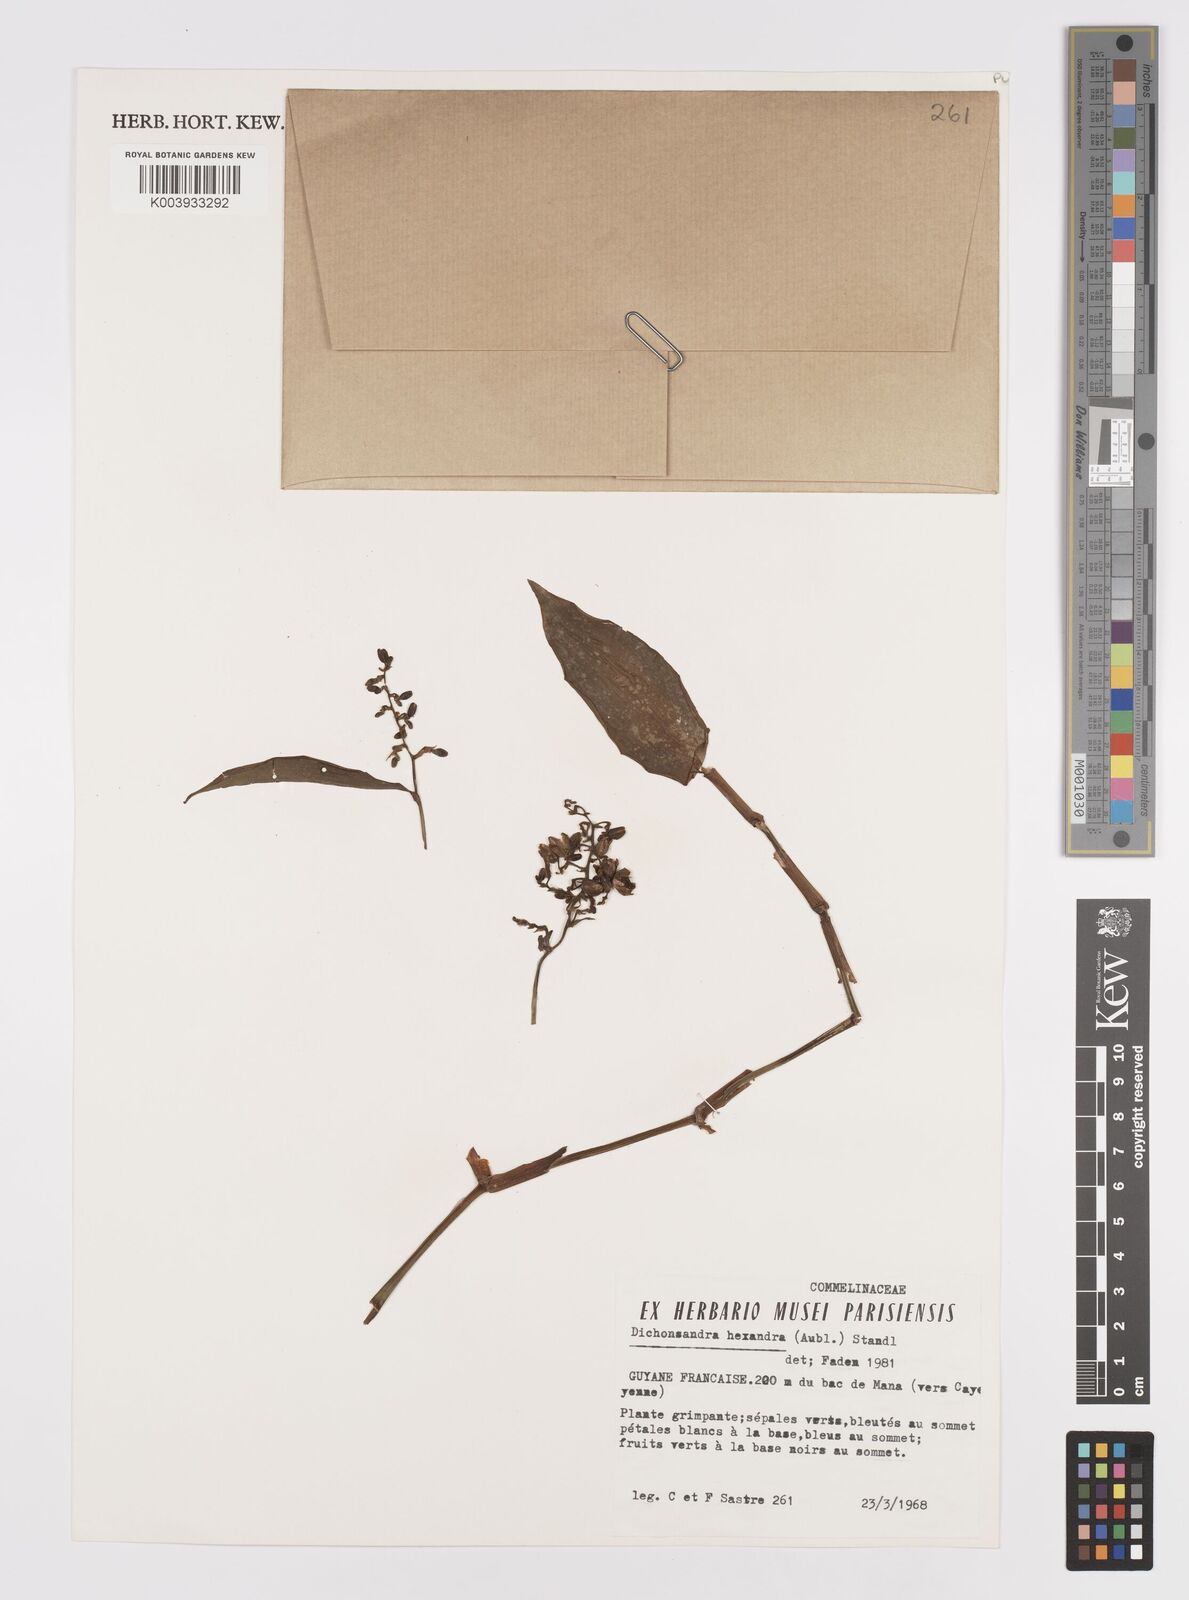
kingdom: Plantae
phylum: Tracheophyta
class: Liliopsida
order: Commelinales
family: Commelinaceae
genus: Dichorisandra
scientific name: Dichorisandra hexandra
